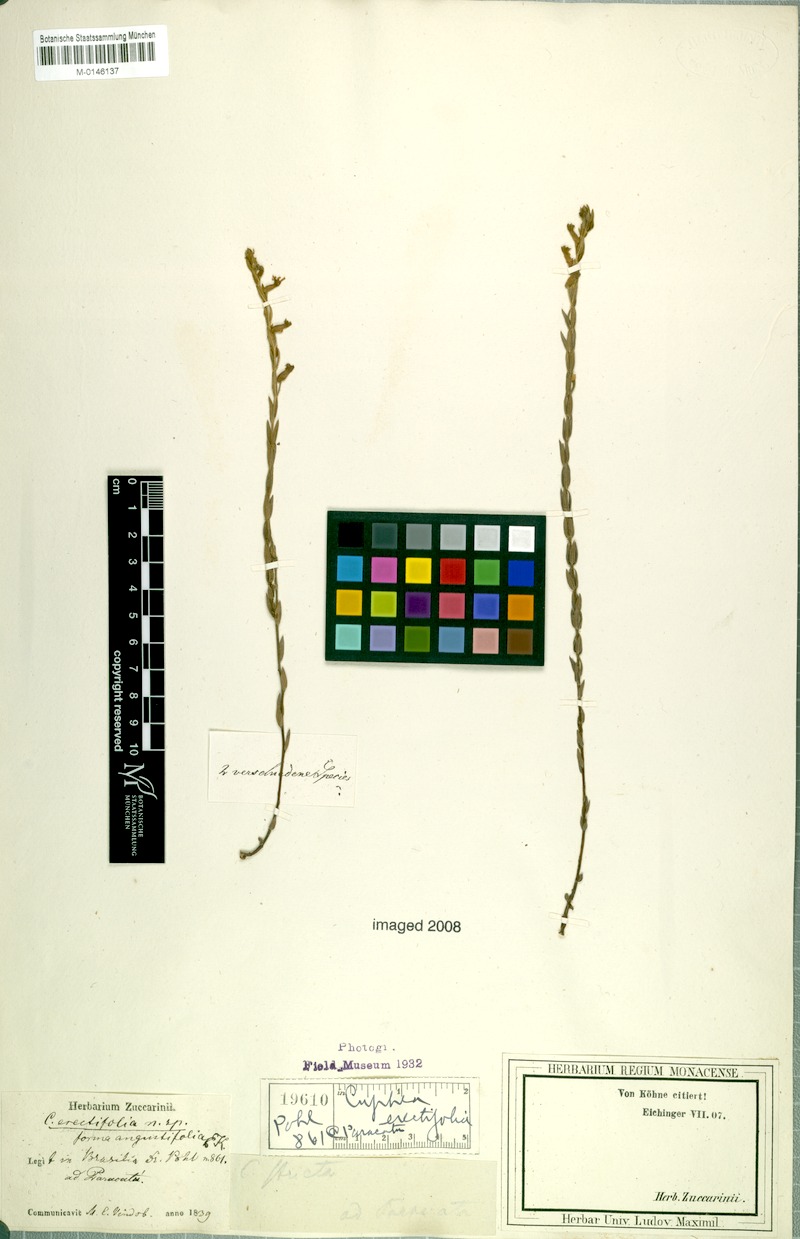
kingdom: Plantae
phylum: Tracheophyta
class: Magnoliopsida
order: Myrtales
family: Lythraceae
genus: Cuphea
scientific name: Cuphea spermacoce
